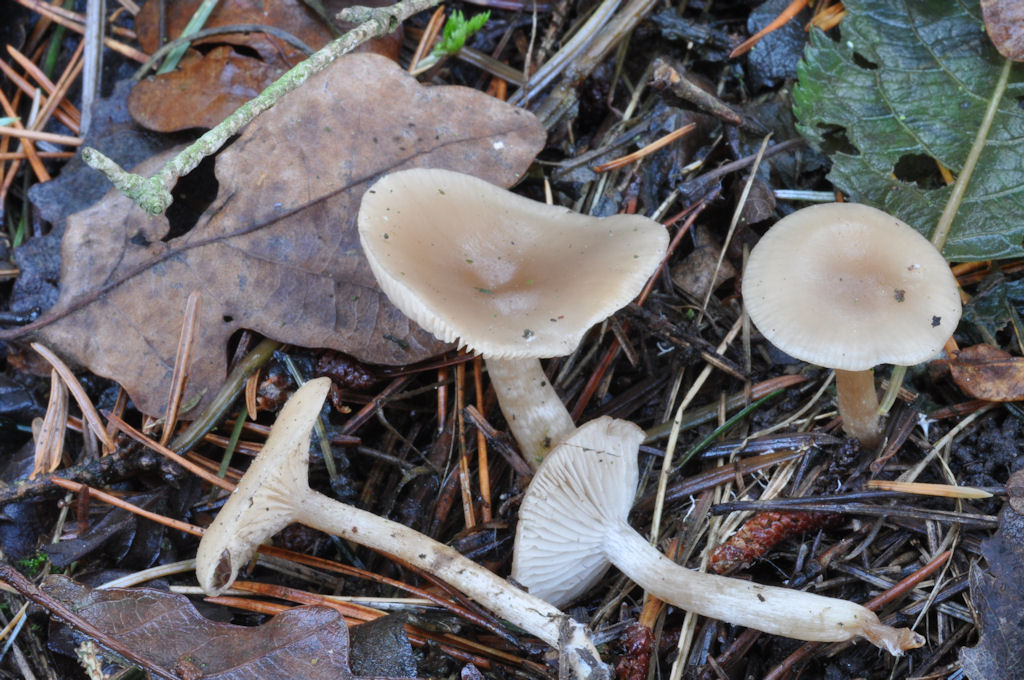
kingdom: Fungi
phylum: Basidiomycota
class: Agaricomycetes
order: Agaricales
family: Tricholomataceae
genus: Clitocybe
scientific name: Clitocybe fragrans
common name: vellugtende tragthat
